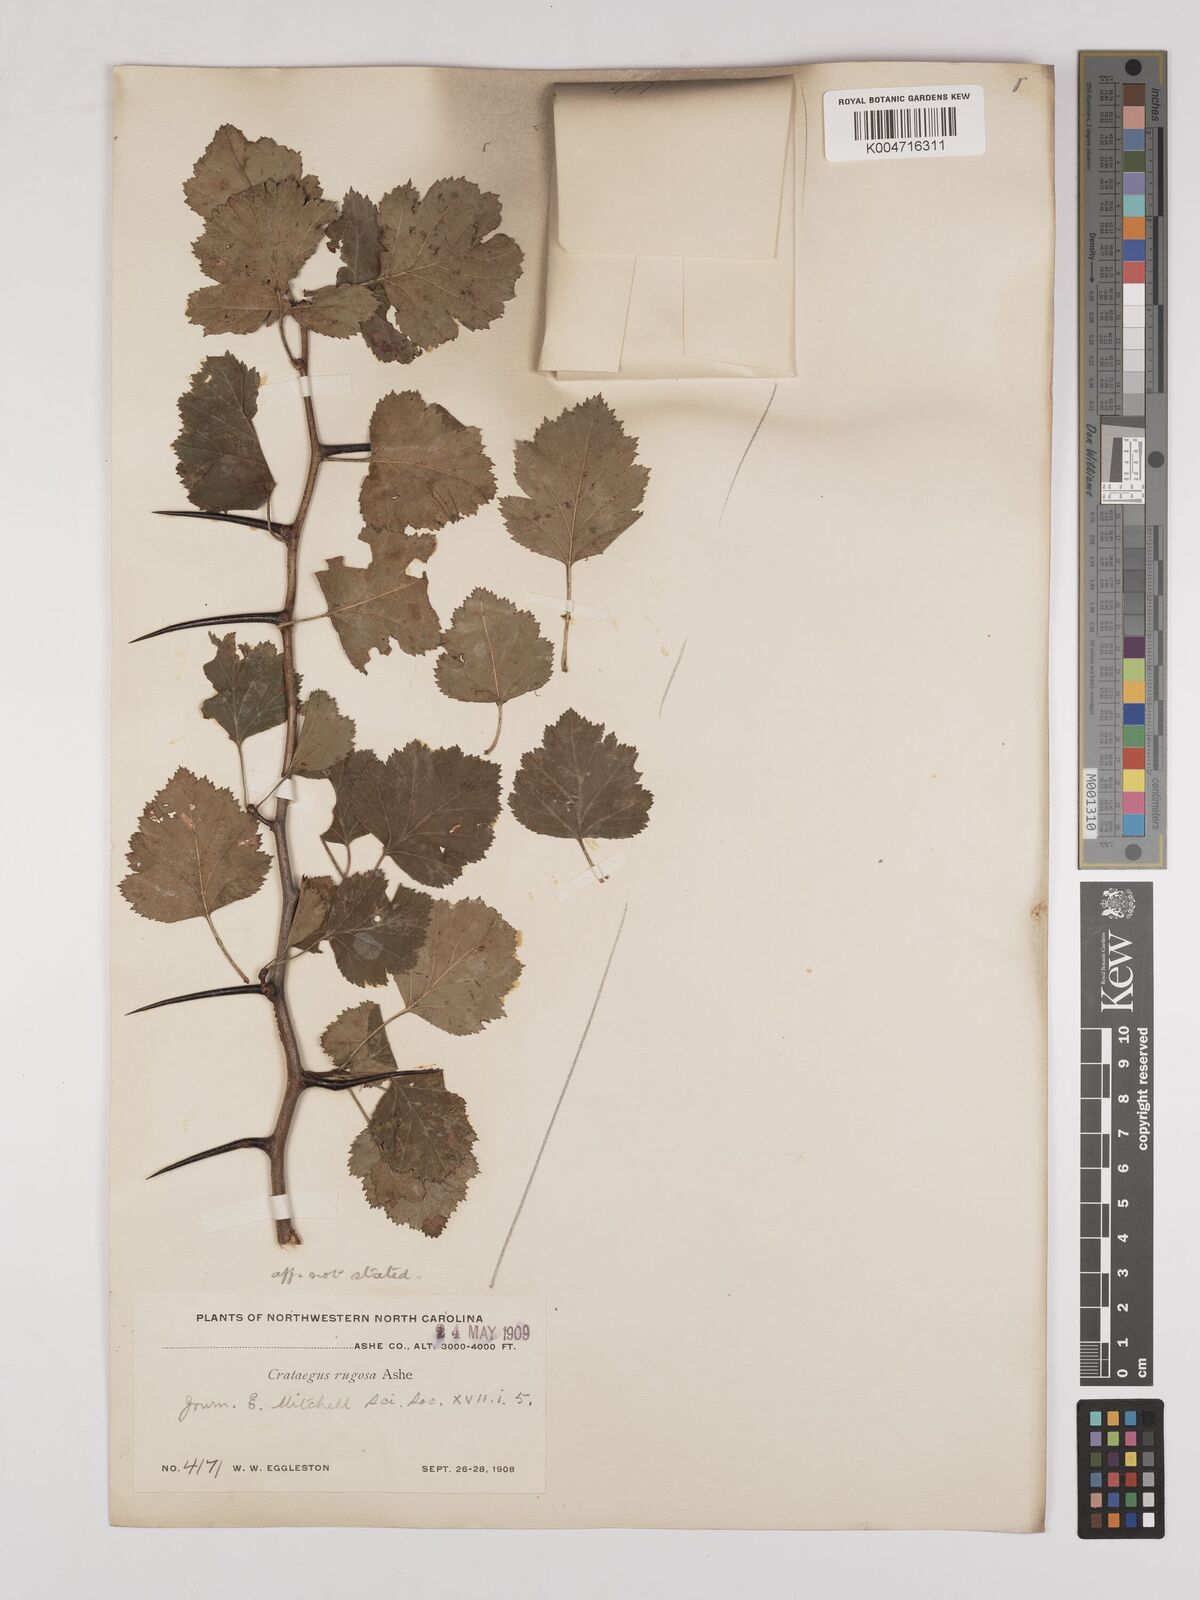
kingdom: Plantae
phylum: Tracheophyta
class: Magnoliopsida
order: Rosales
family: Rosaceae
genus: Crataegus
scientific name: Crataegus pruinosa
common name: Waxy-fruit hawthorn
